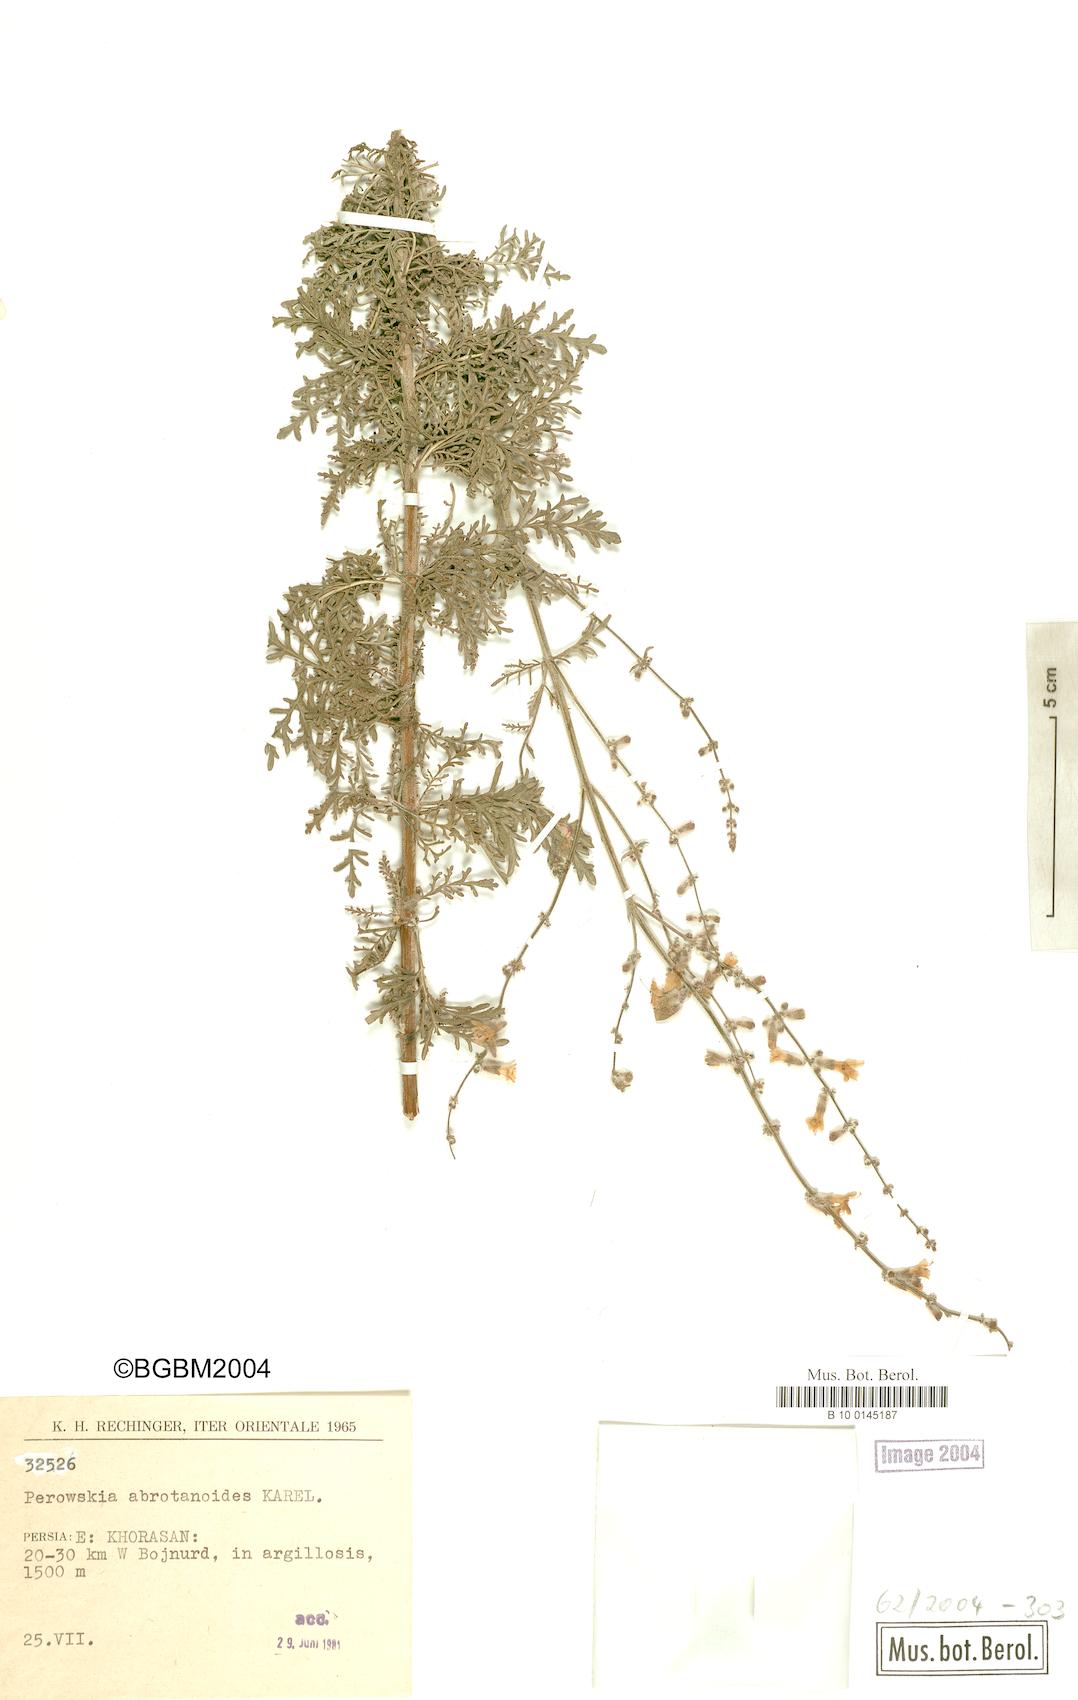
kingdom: Plantae
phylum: Tracheophyta
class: Magnoliopsida
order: Lamiales
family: Lamiaceae
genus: Salvia
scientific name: Salvia abrotanoides
